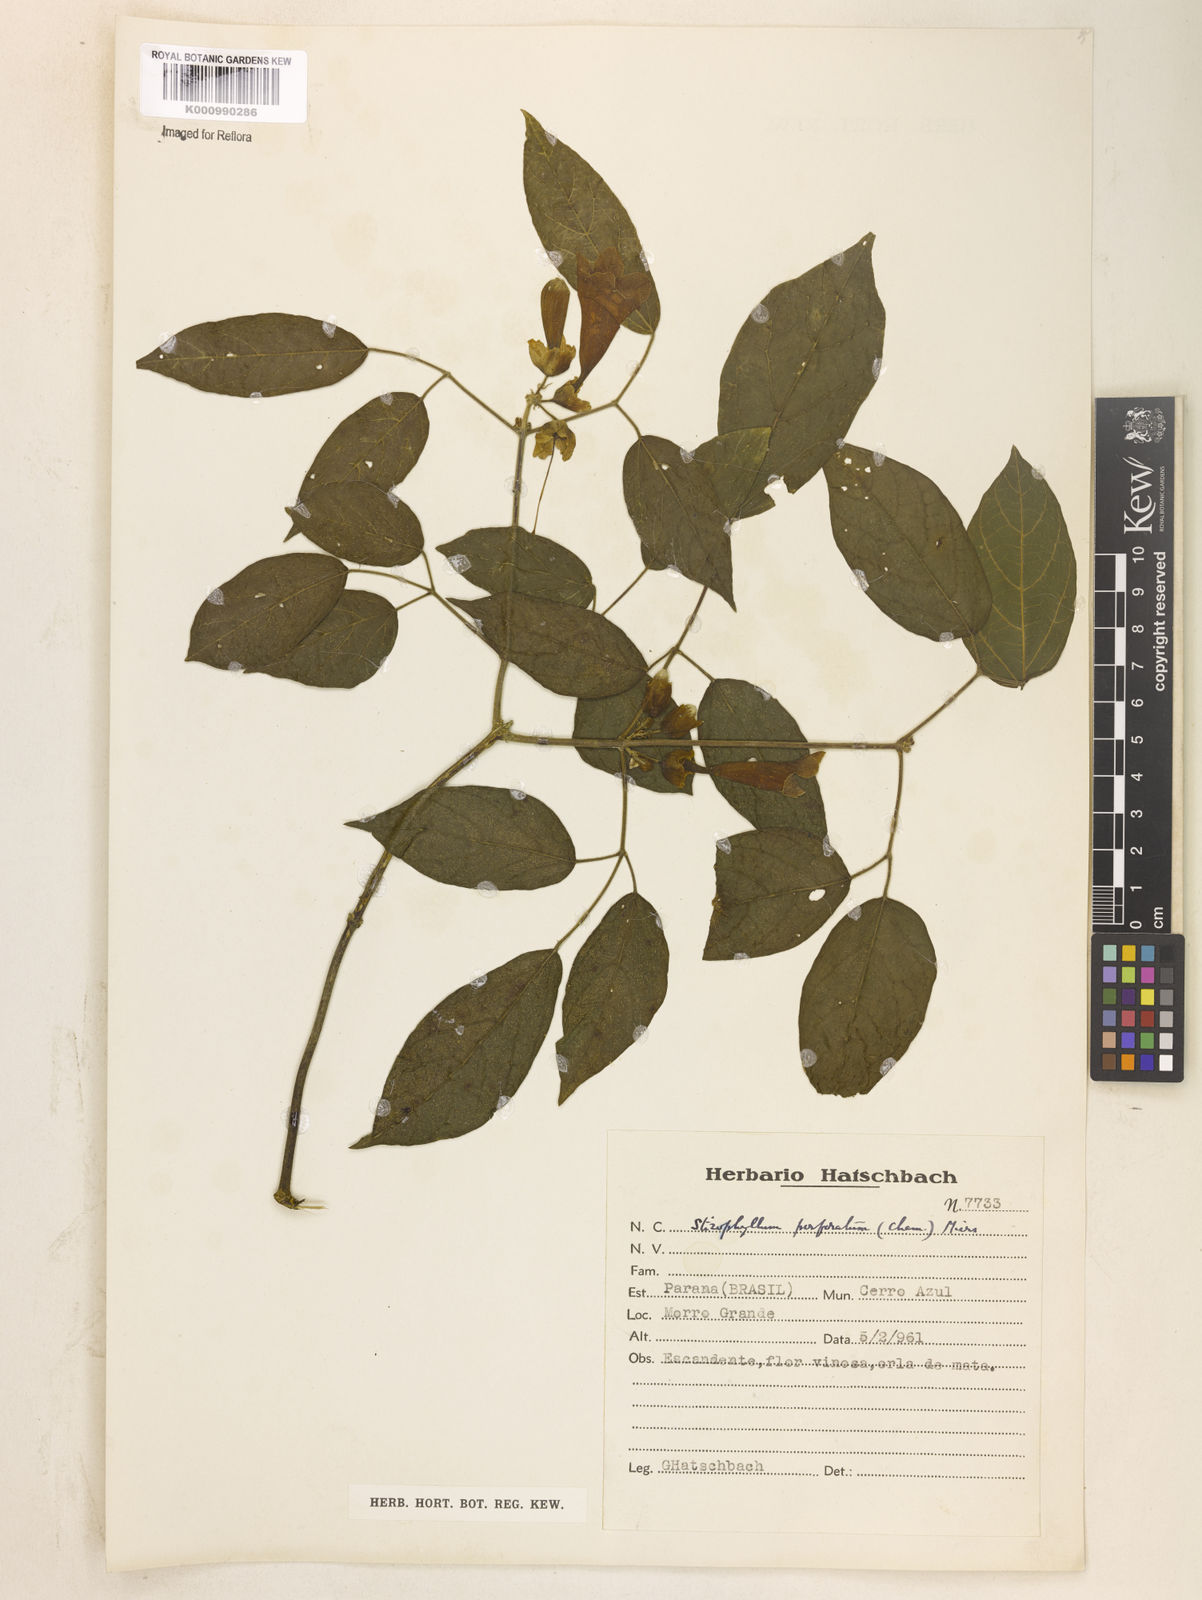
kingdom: Plantae
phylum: Tracheophyta
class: Magnoliopsida
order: Lamiales
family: Bignoniaceae
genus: Stizophyllum
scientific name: Stizophyllum perforatum
